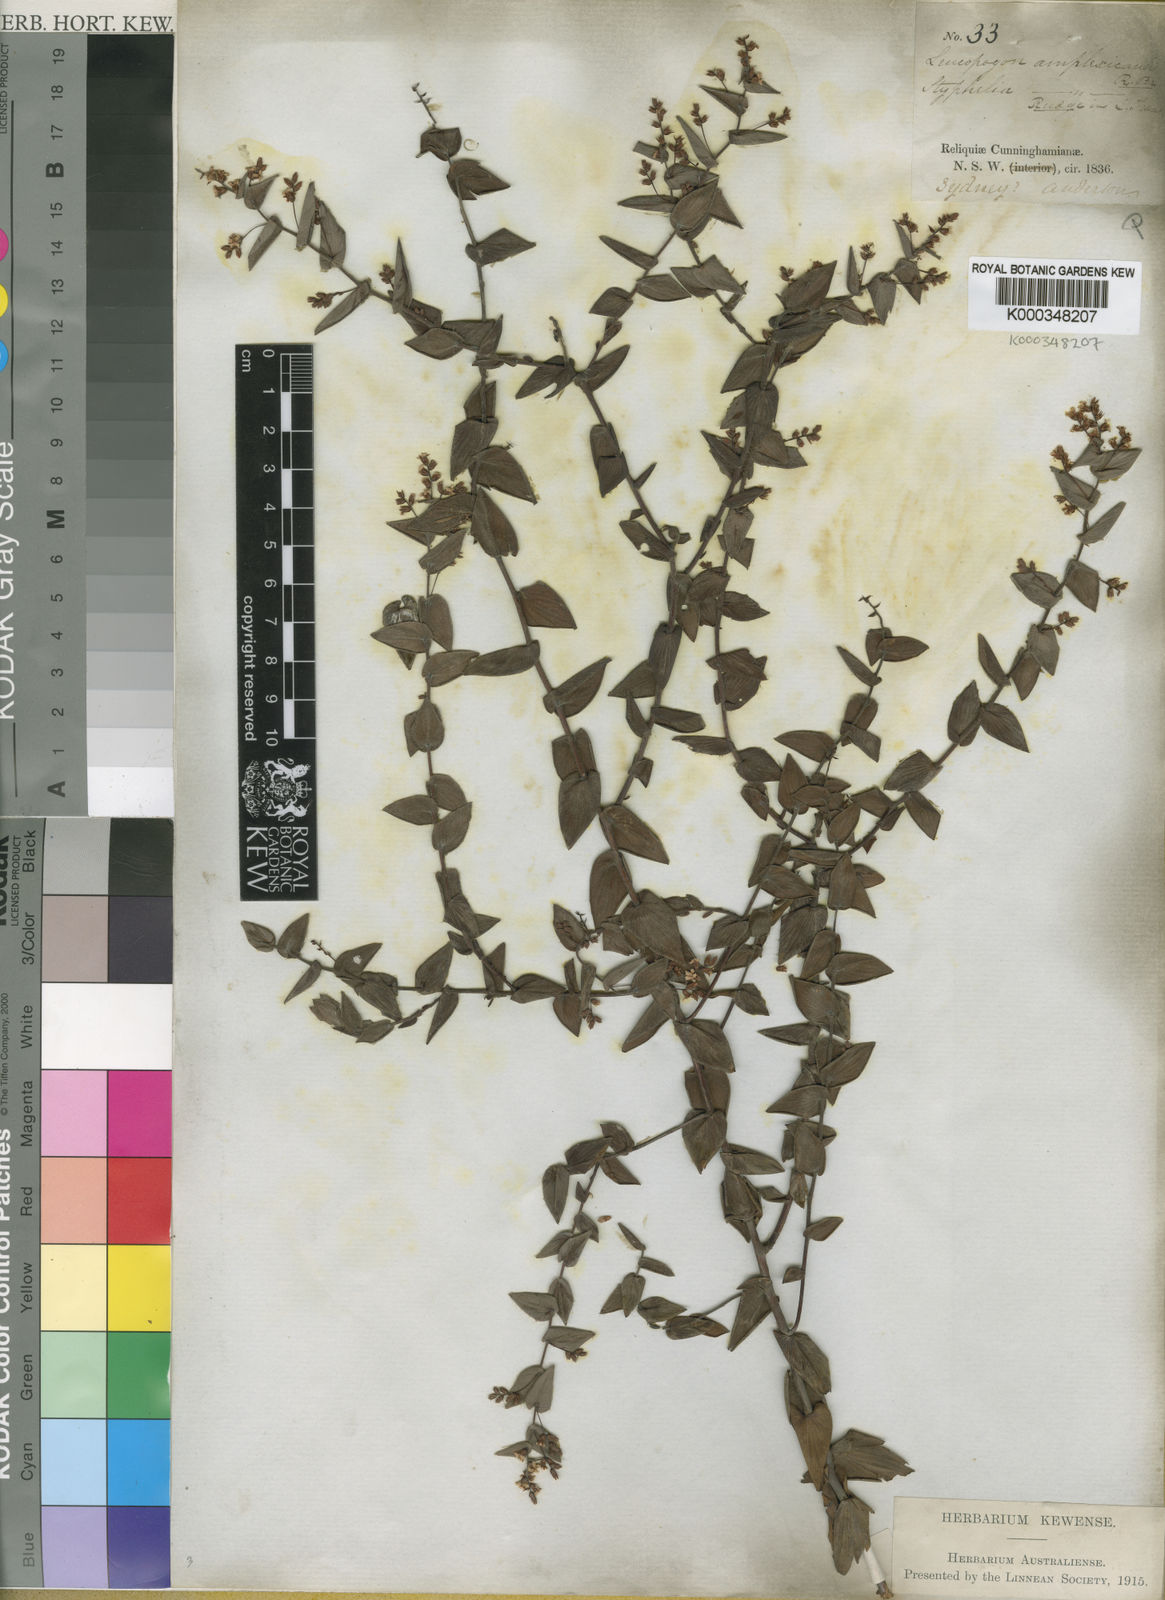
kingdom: Plantae
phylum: Tracheophyta
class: Magnoliopsida
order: Ericales
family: Ericaceae
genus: Leucopogon
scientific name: Leucopogon amplexicaulis
